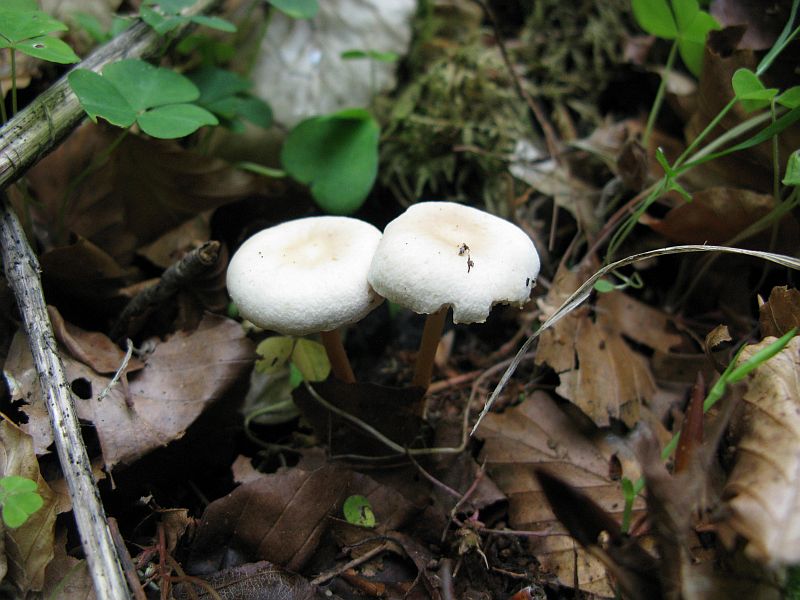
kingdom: Fungi
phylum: Basidiomycota
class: Agaricomycetes
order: Agaricales
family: Omphalotaceae
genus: Gymnopus
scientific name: Gymnopus aquosus
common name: bleg fladhat
